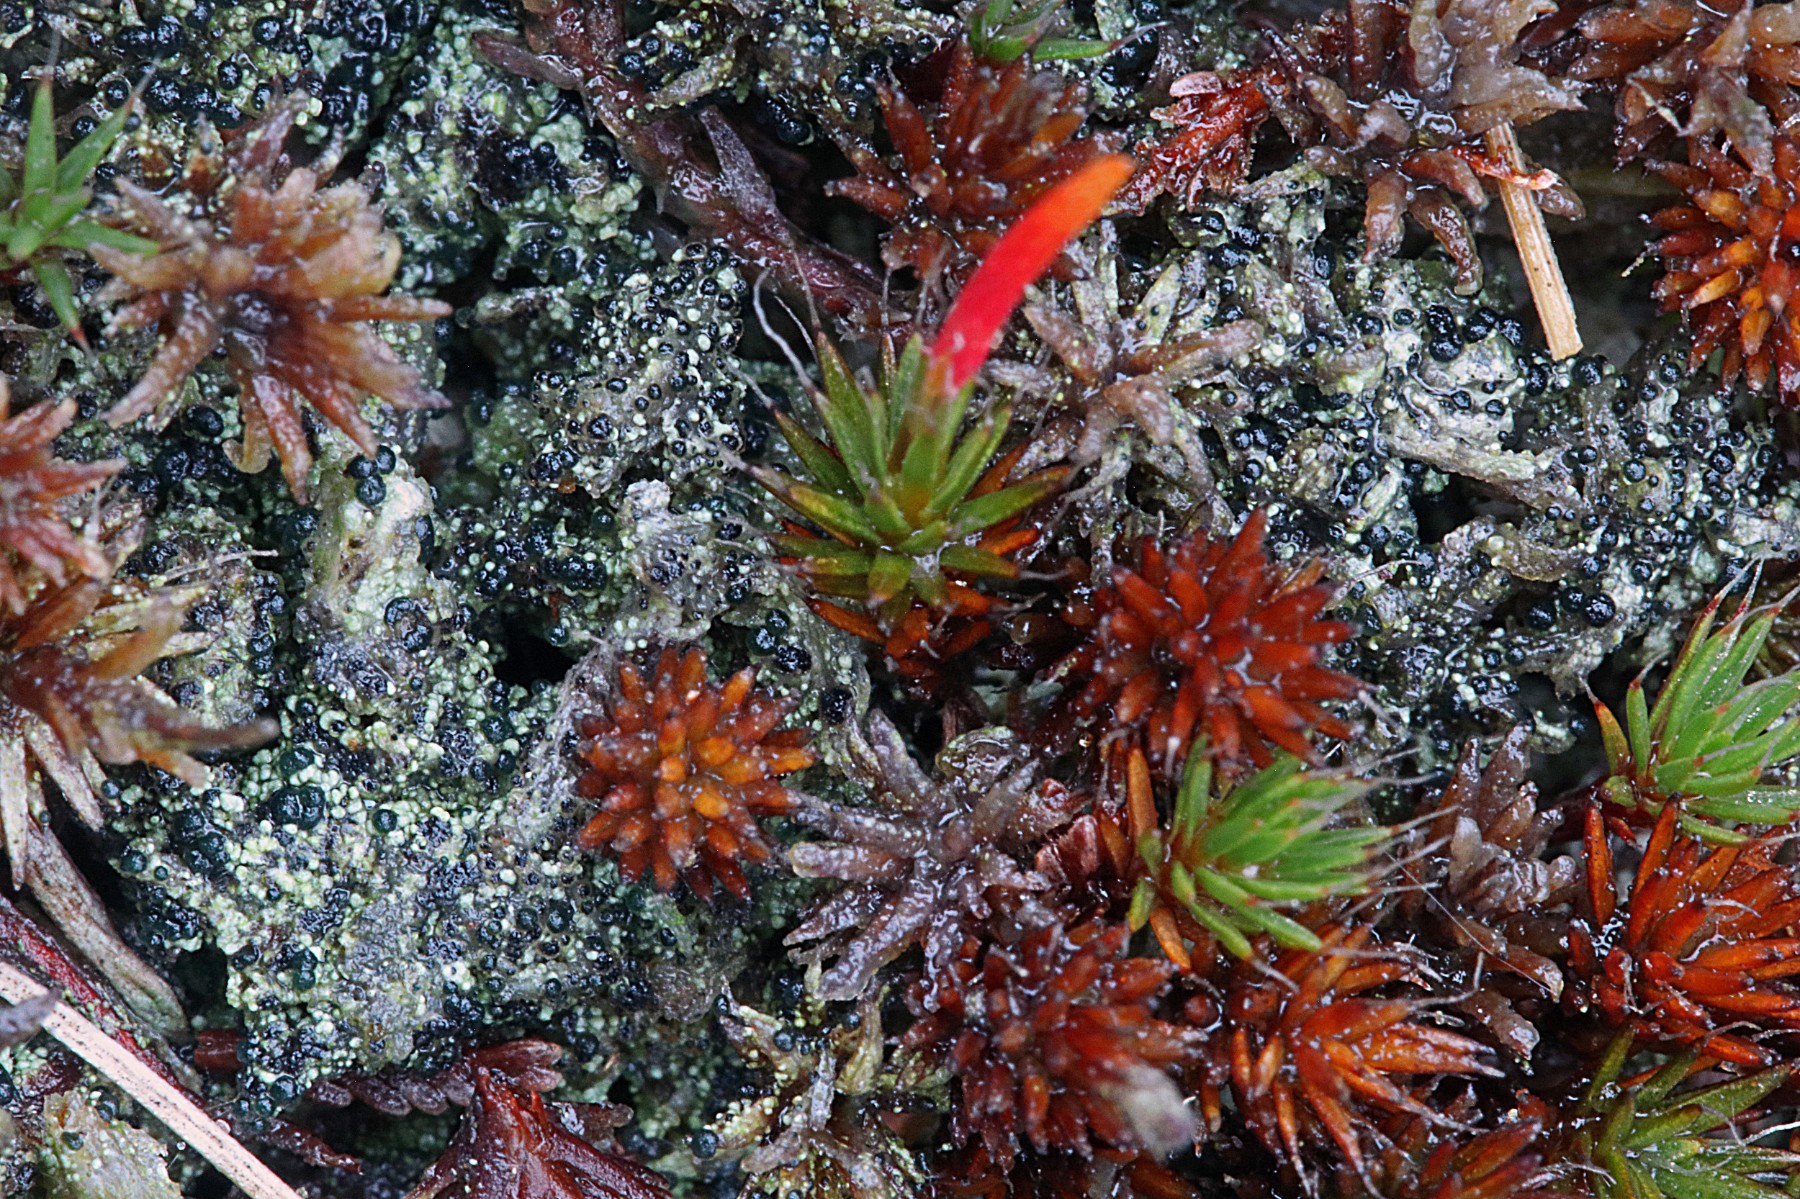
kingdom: Fungi
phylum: Ascomycota
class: Lecanoromycetes
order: Lecanorales
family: Byssolomataceae
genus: Micarea
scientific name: Micarea lignaria
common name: tørve-knaplav
